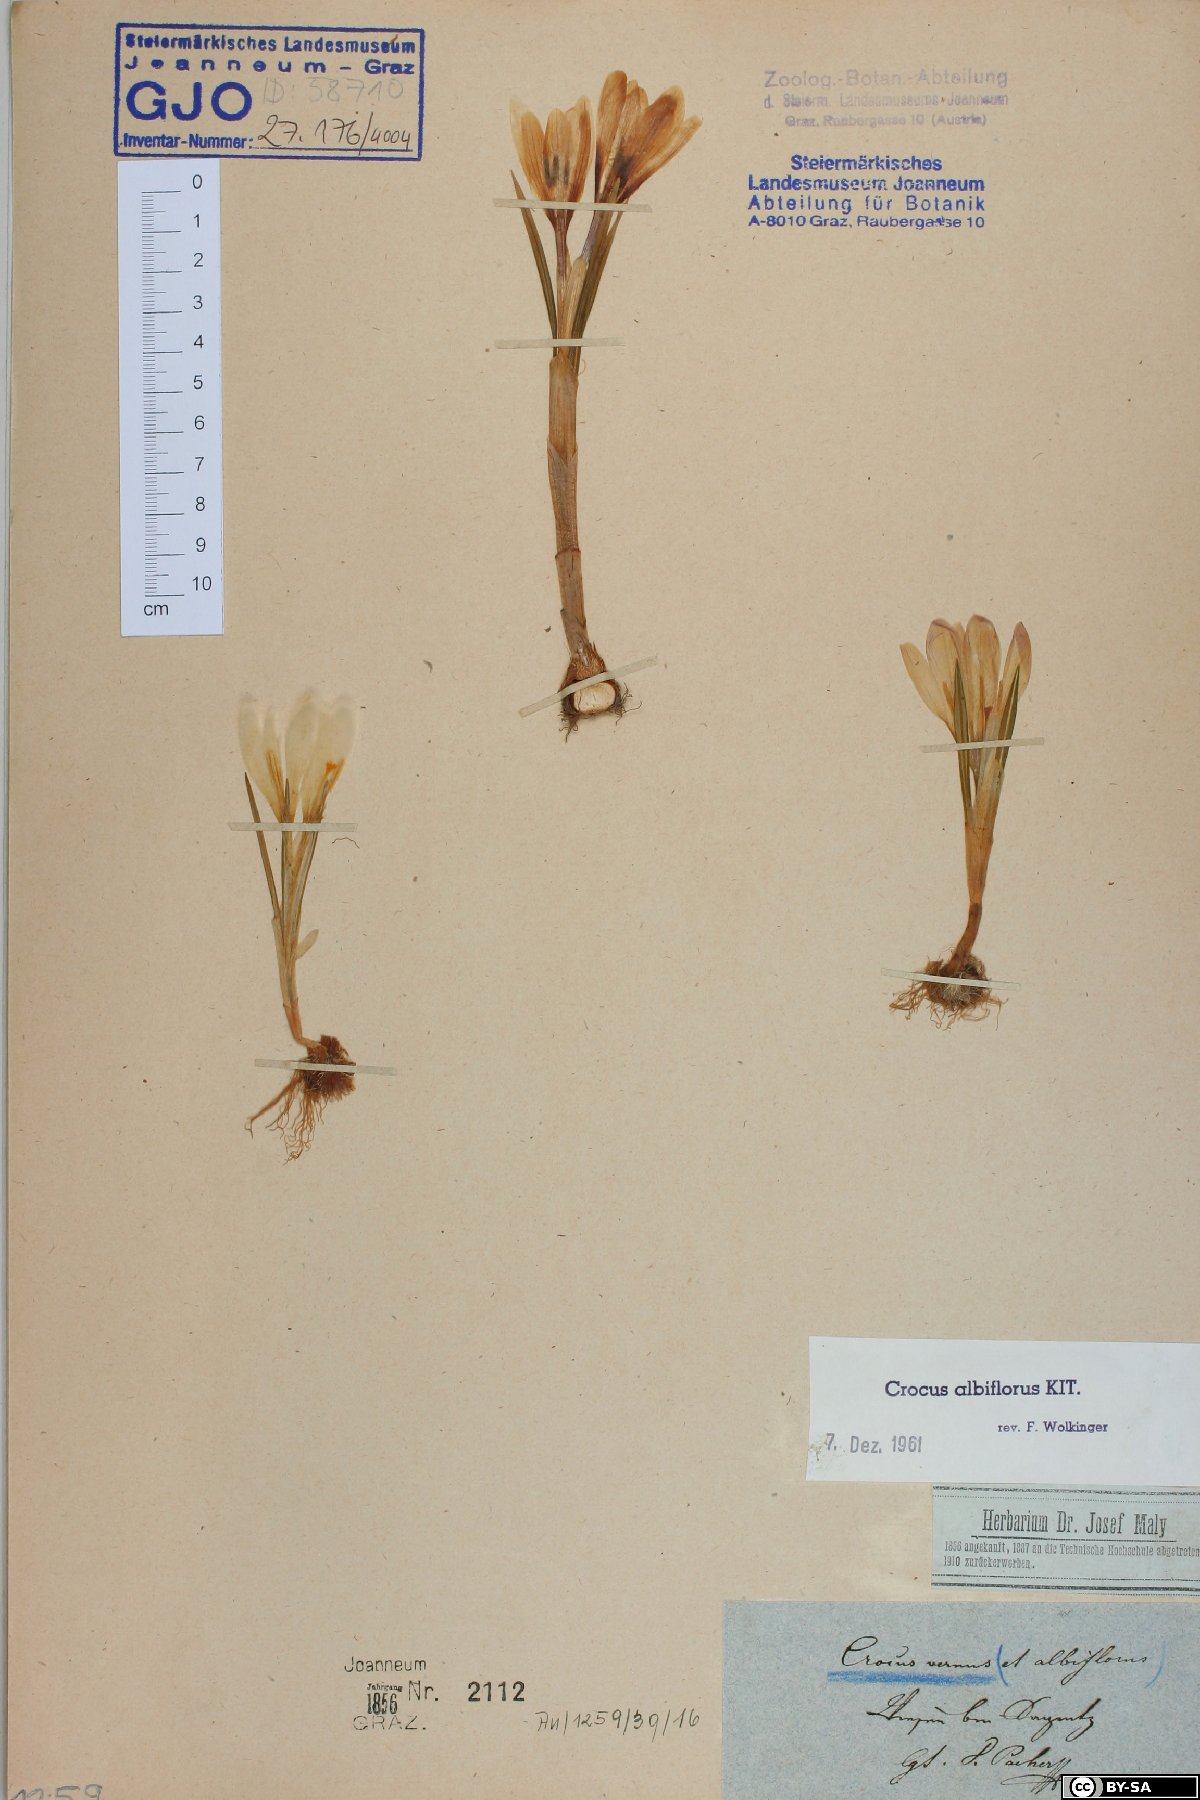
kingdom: Plantae
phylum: Tracheophyta
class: Liliopsida
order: Asparagales
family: Iridaceae
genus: Crocus
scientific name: Crocus vernus
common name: Spring crocus
